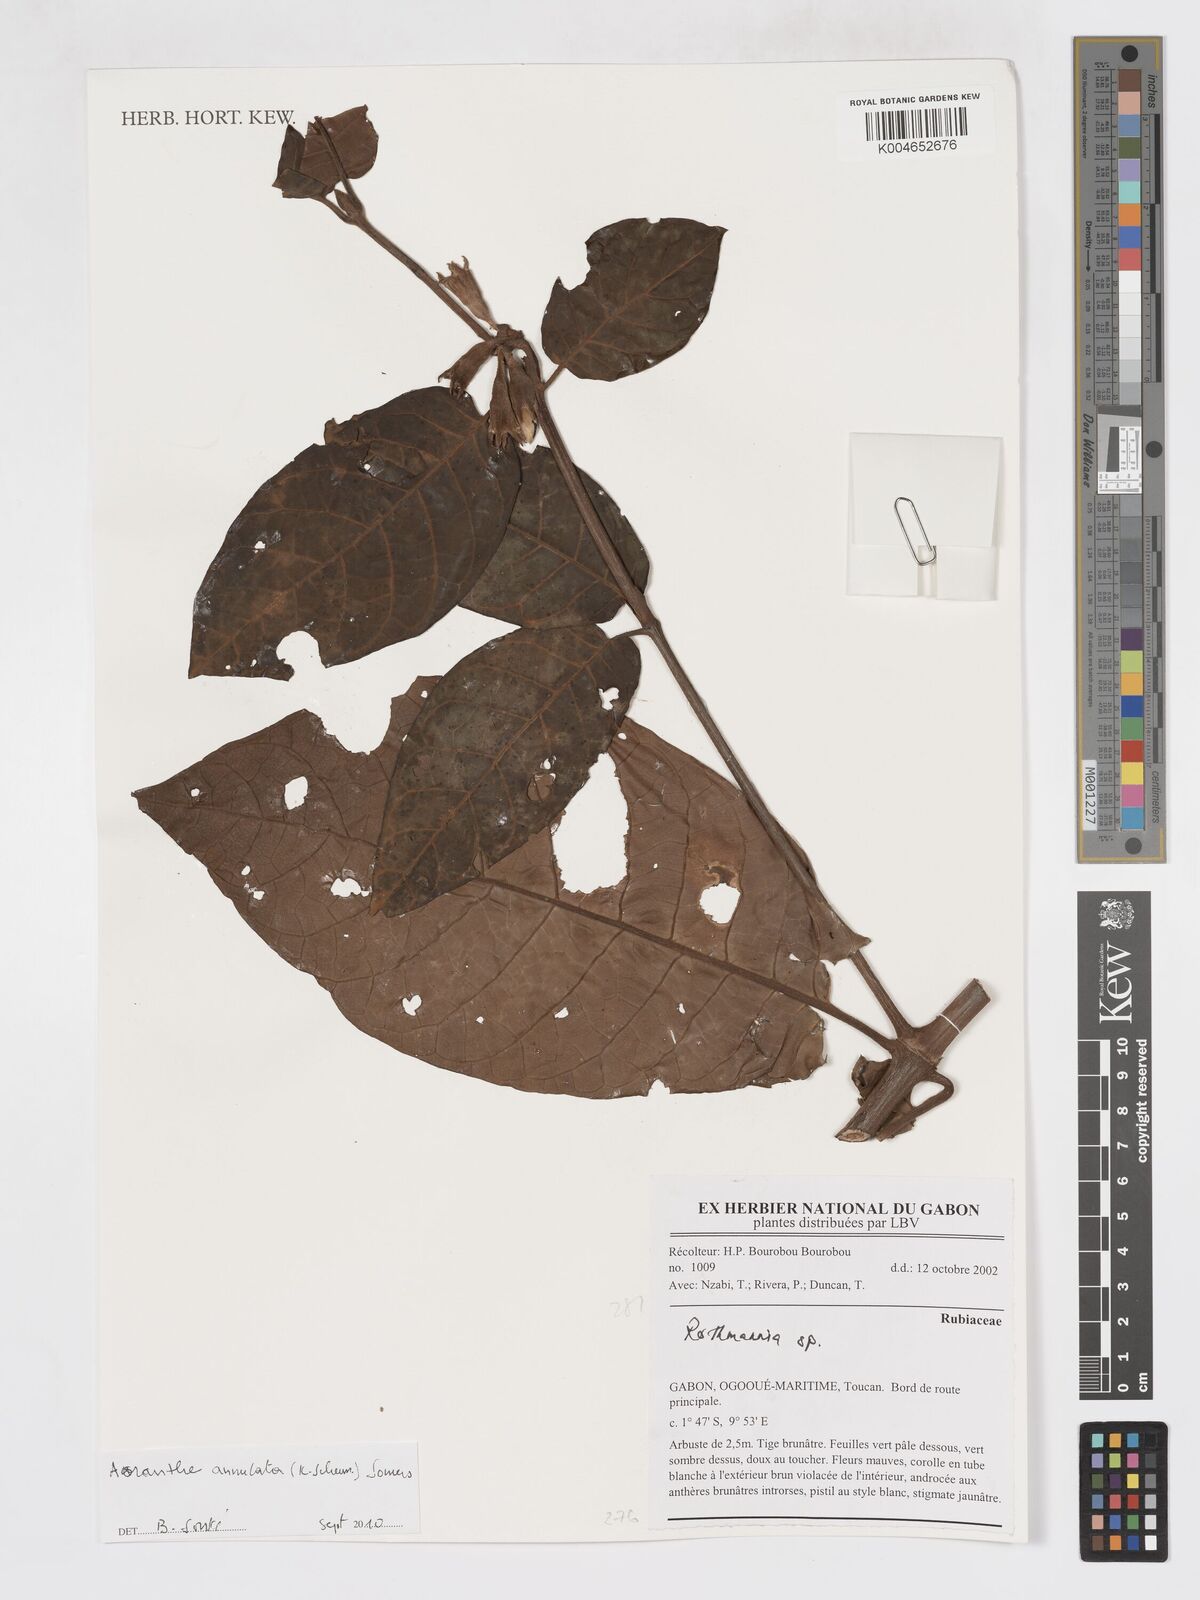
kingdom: Plantae
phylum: Tracheophyta
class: Magnoliopsida
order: Gentianales
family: Rubiaceae
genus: Aoranthe
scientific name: Aoranthe annulata
